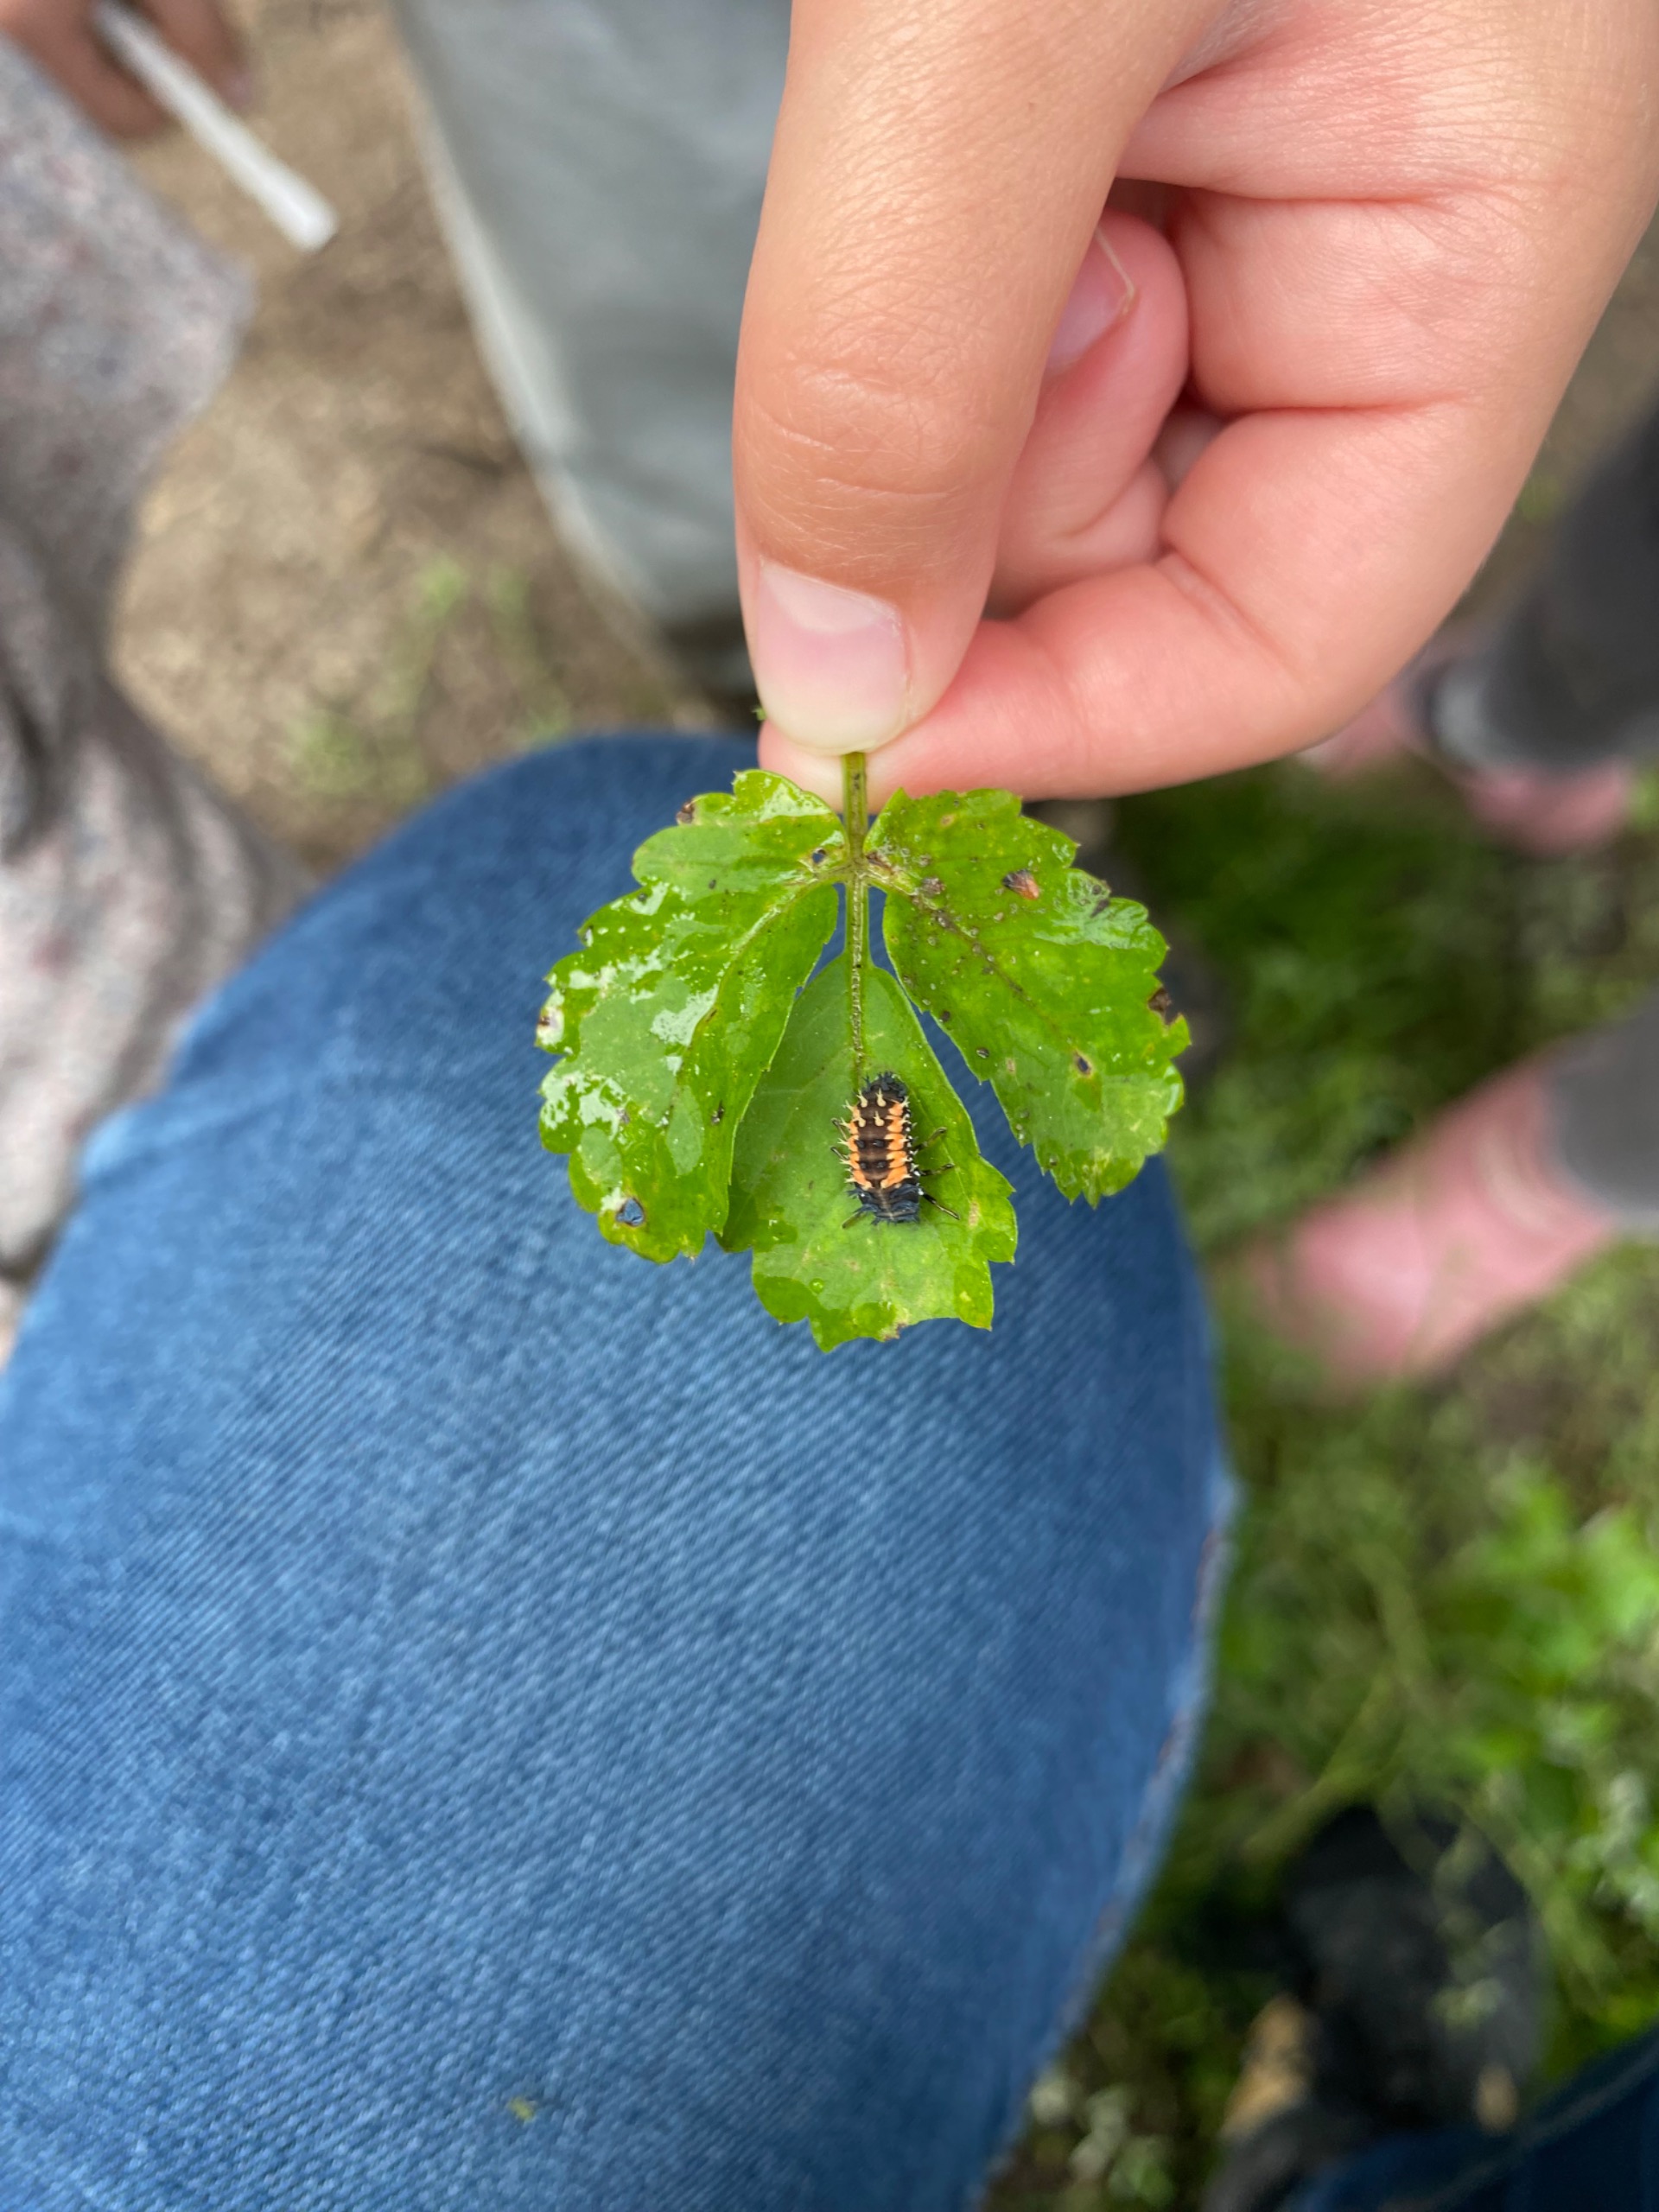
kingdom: Animalia
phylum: Arthropoda
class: Insecta
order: Coleoptera
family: Coccinellidae
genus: Harmonia
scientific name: Harmonia axyridis
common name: Harlekinmariehøne
